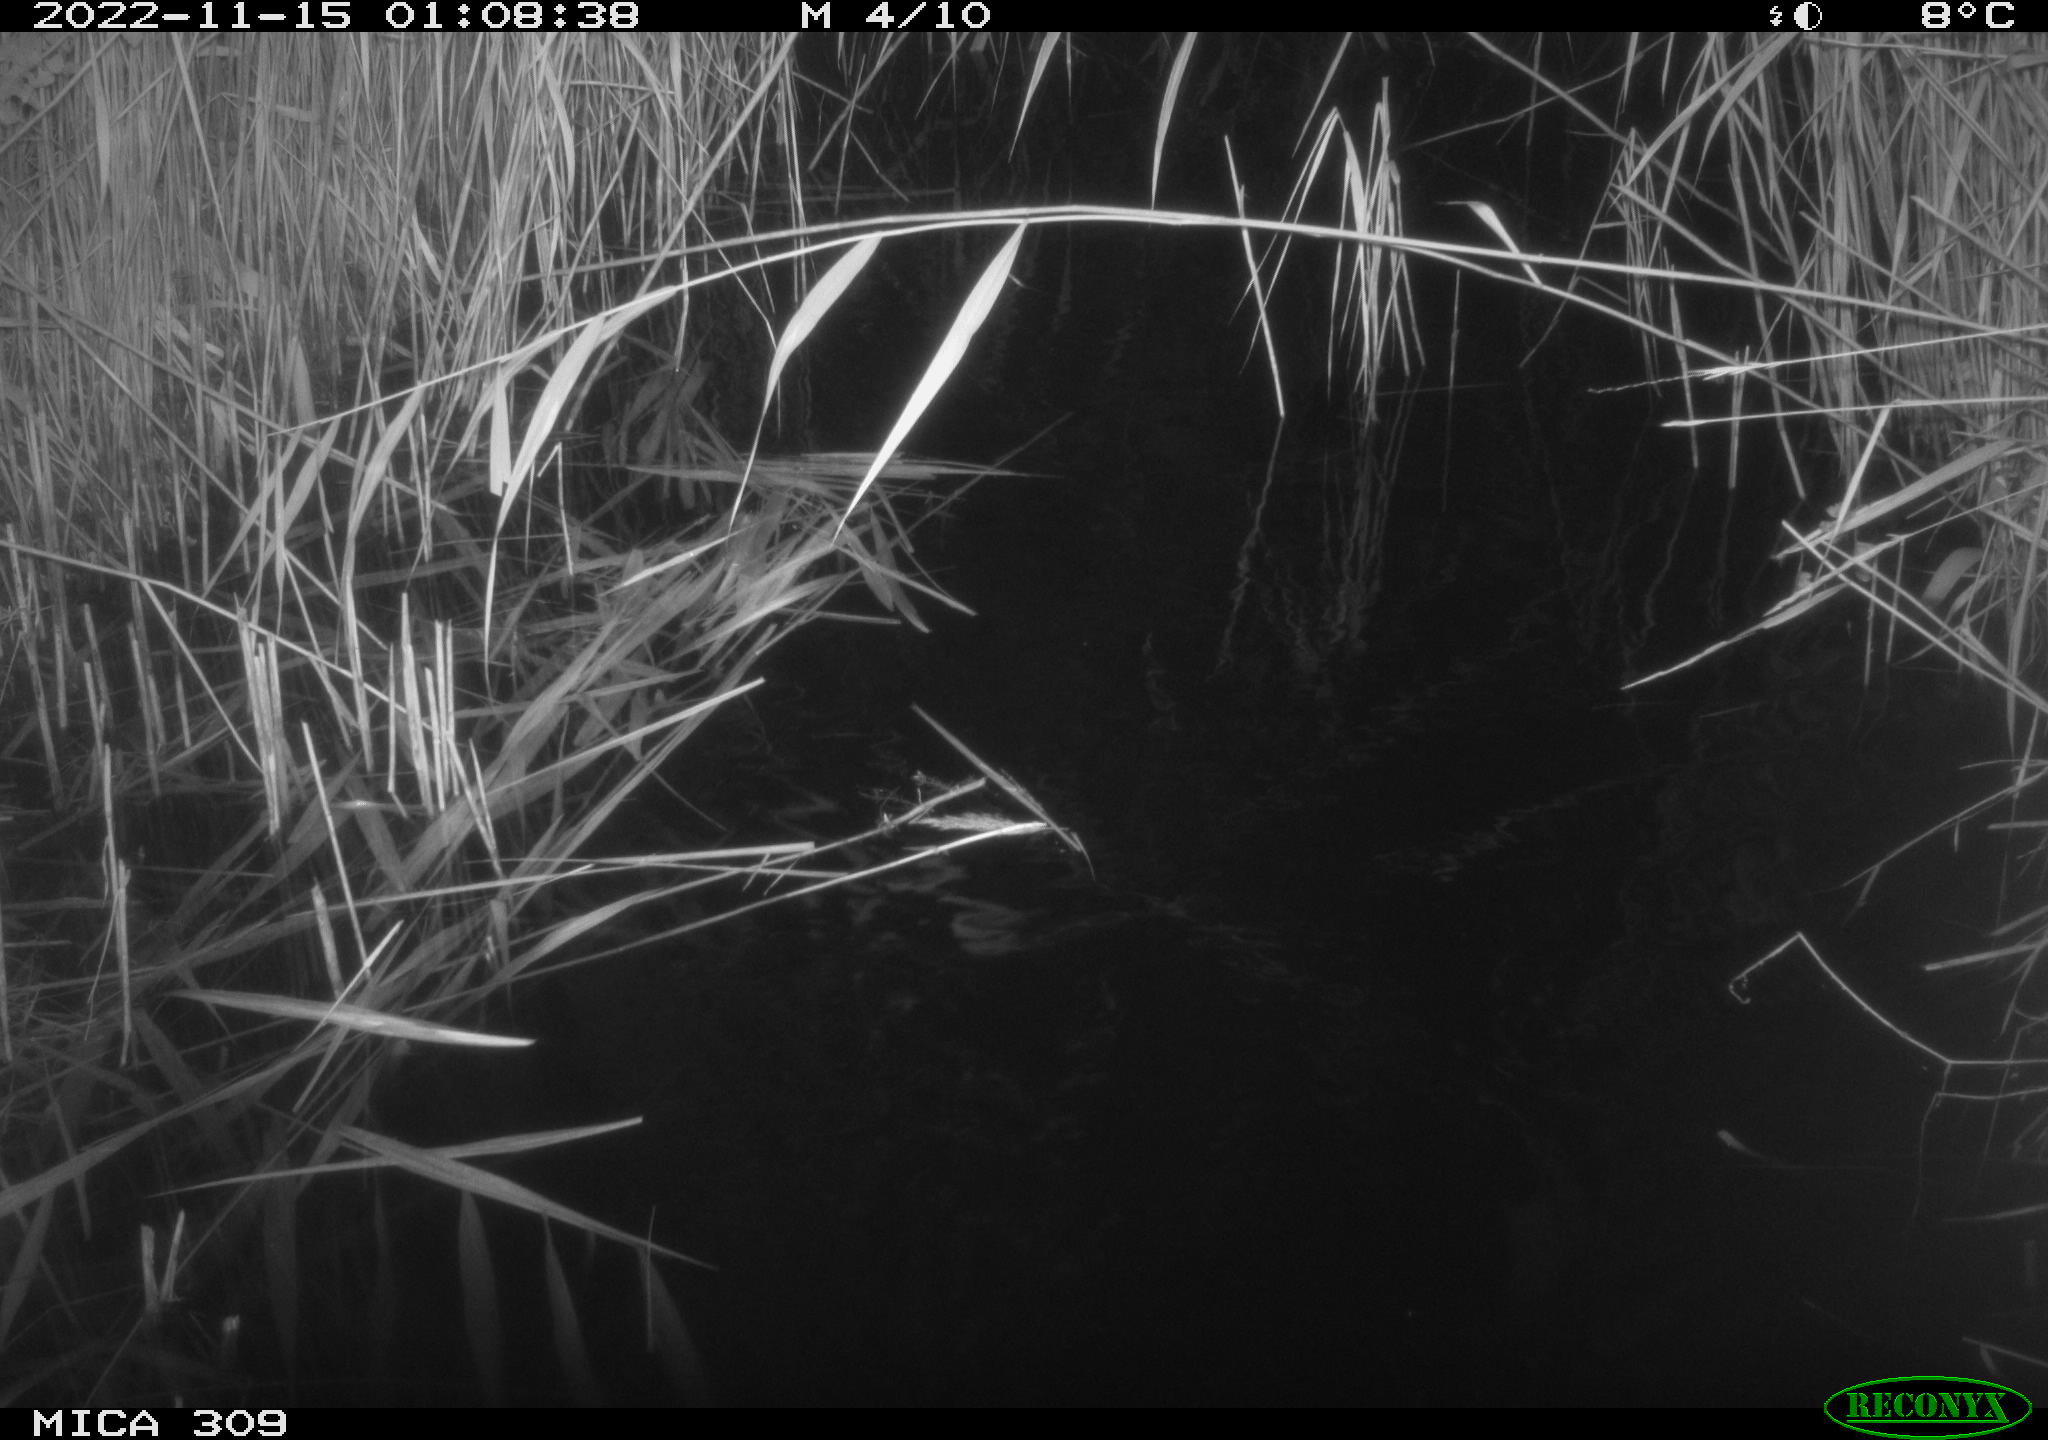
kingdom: Animalia
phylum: Chordata
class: Mammalia
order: Rodentia
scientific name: Rodentia
